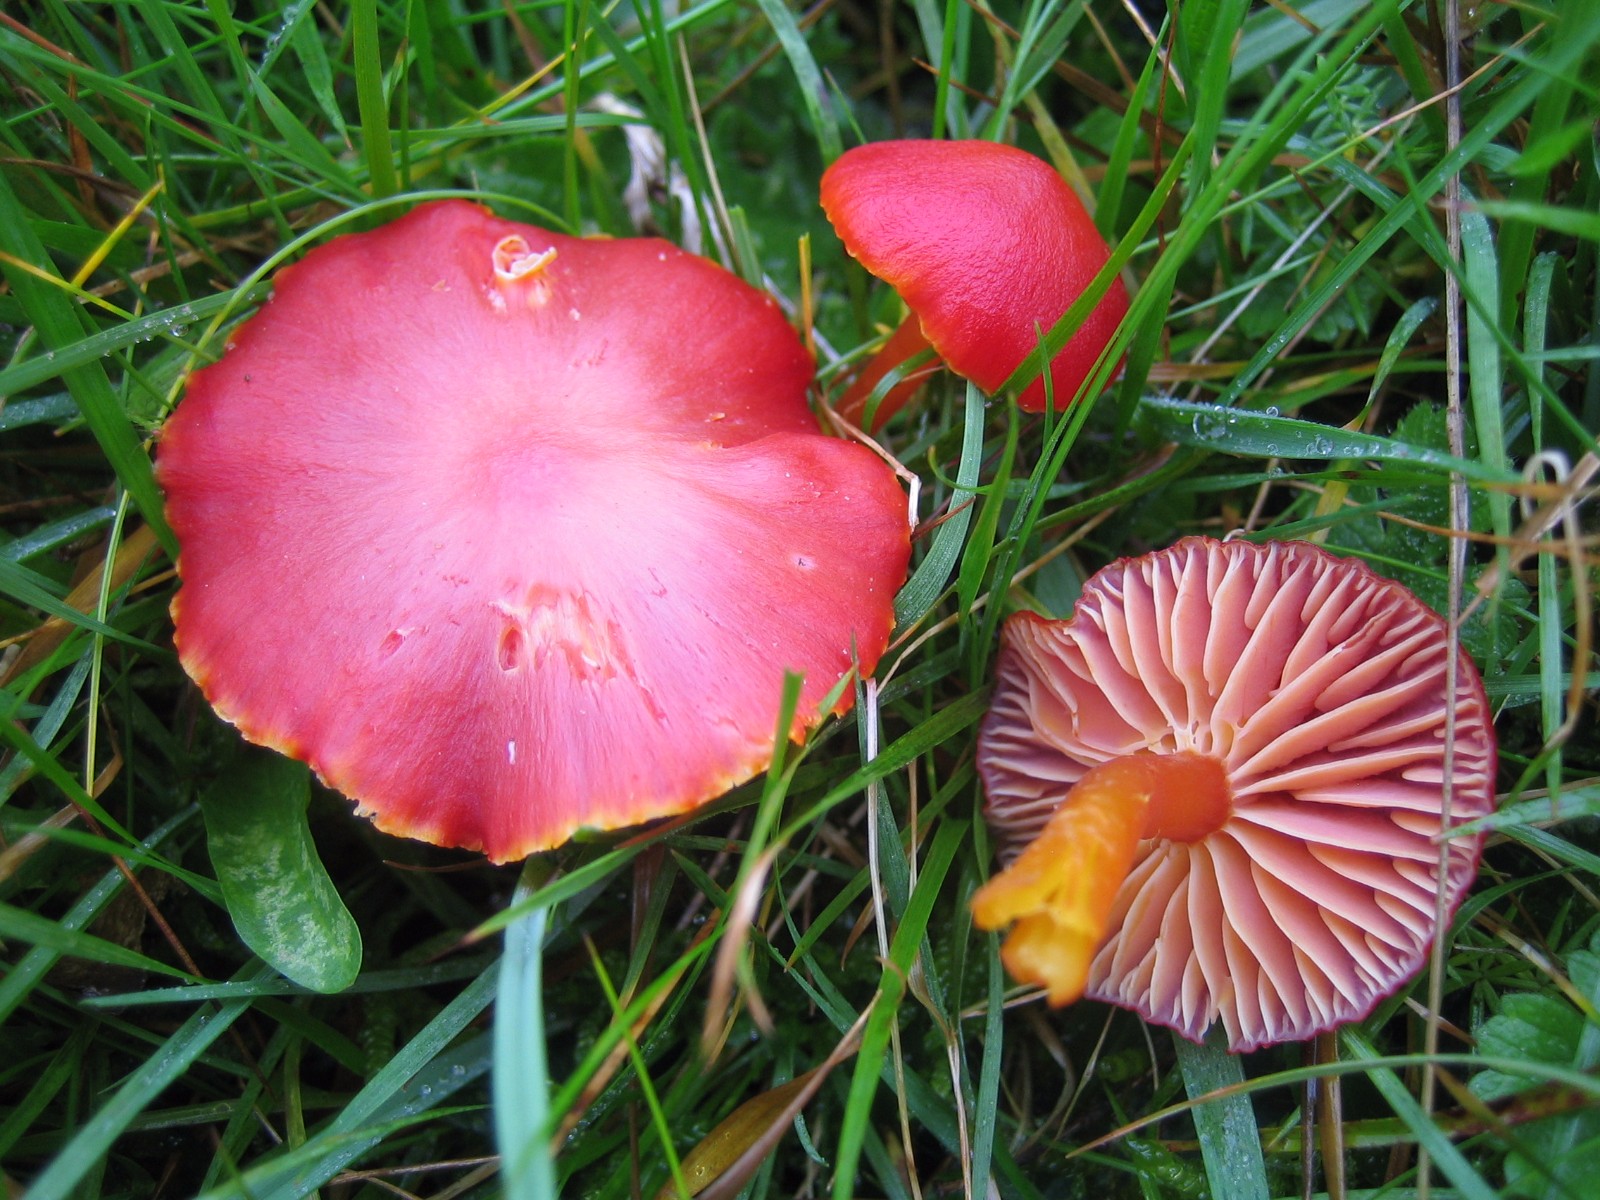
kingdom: Fungi
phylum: Basidiomycota
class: Agaricomycetes
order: Agaricales
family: Hygrophoraceae
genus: Hygrocybe
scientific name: Hygrocybe coccinea
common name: cinnober-vokshat
